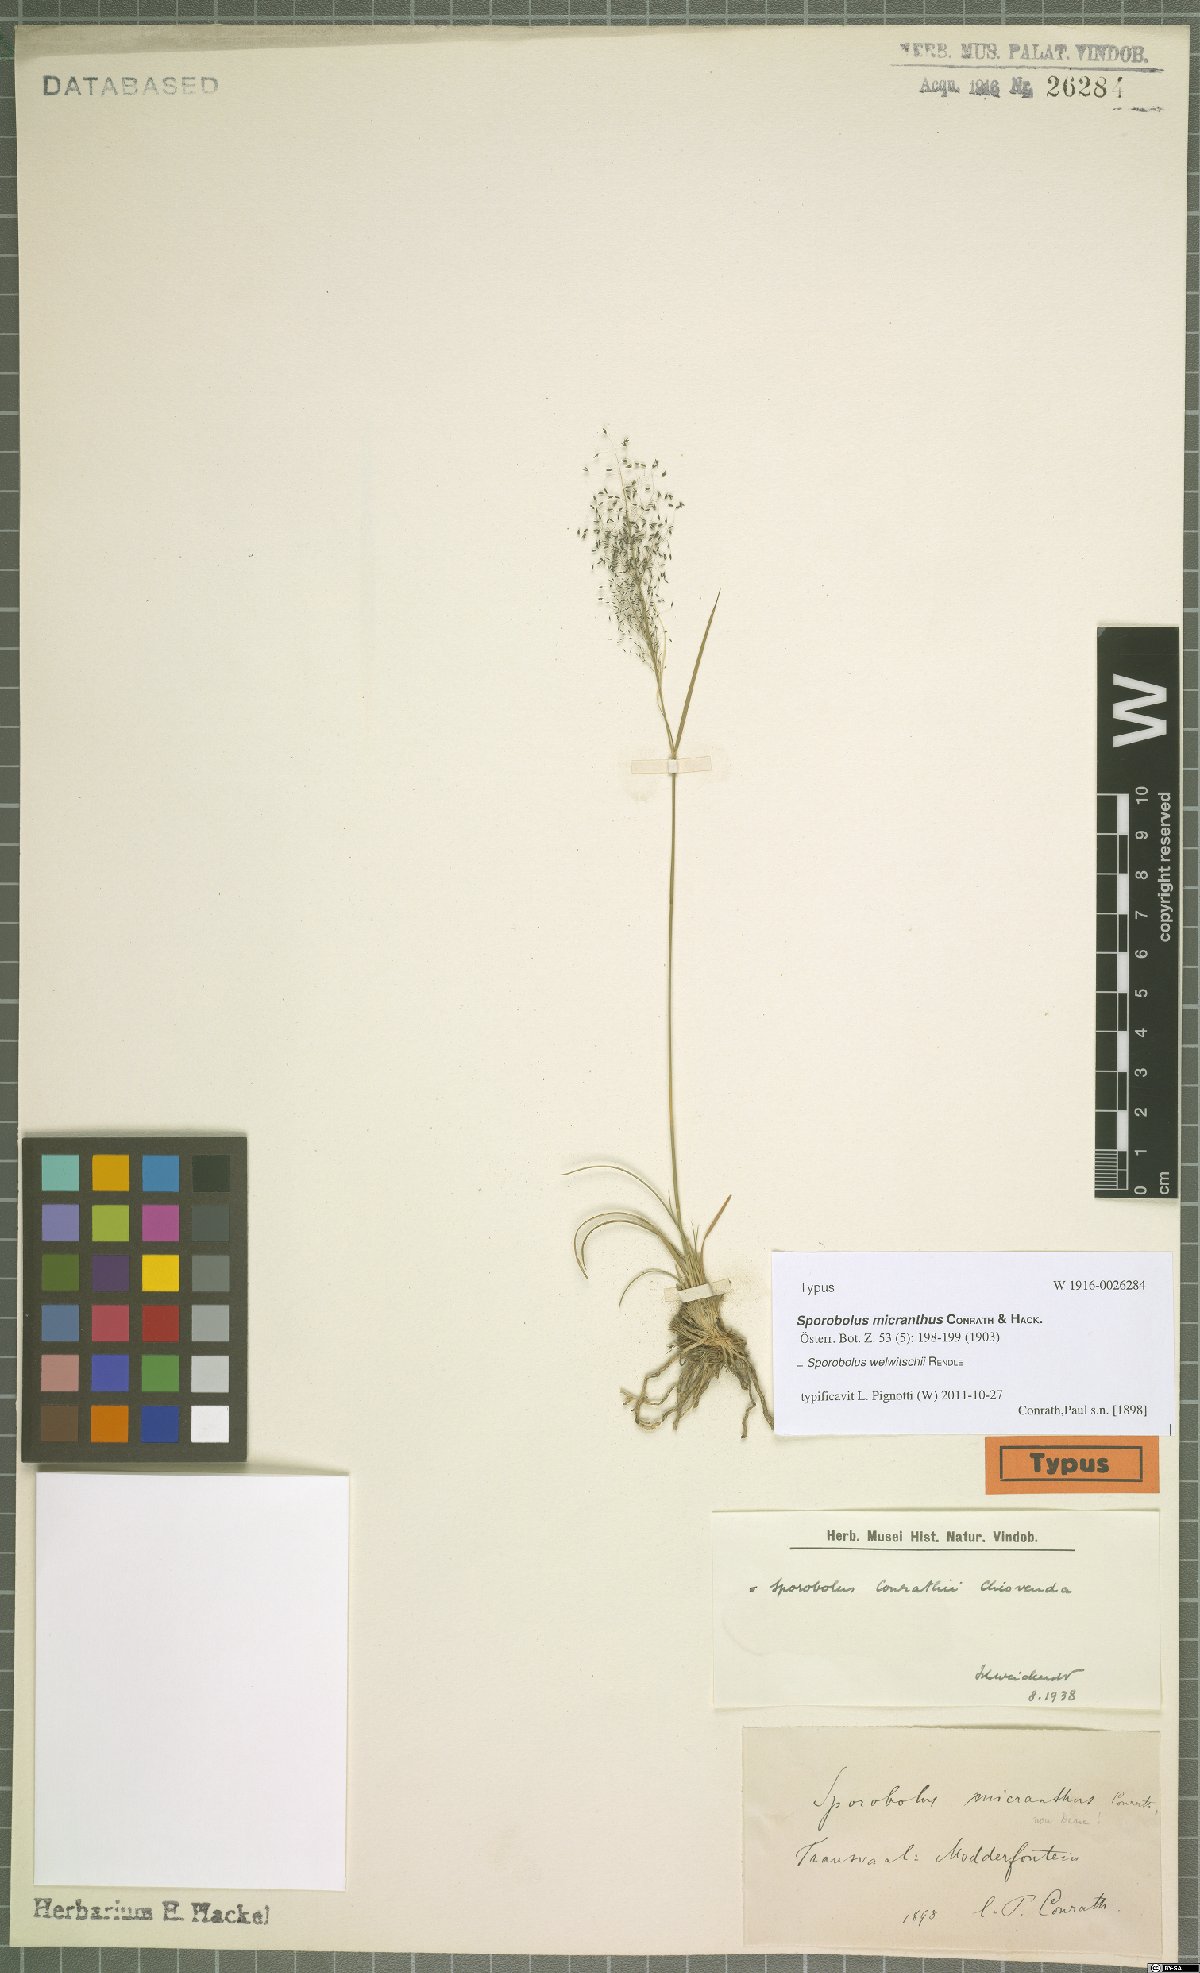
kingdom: Plantae
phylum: Tracheophyta
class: Liliopsida
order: Poales
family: Poaceae
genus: Sporobolus
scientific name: Sporobolus welwitschii
